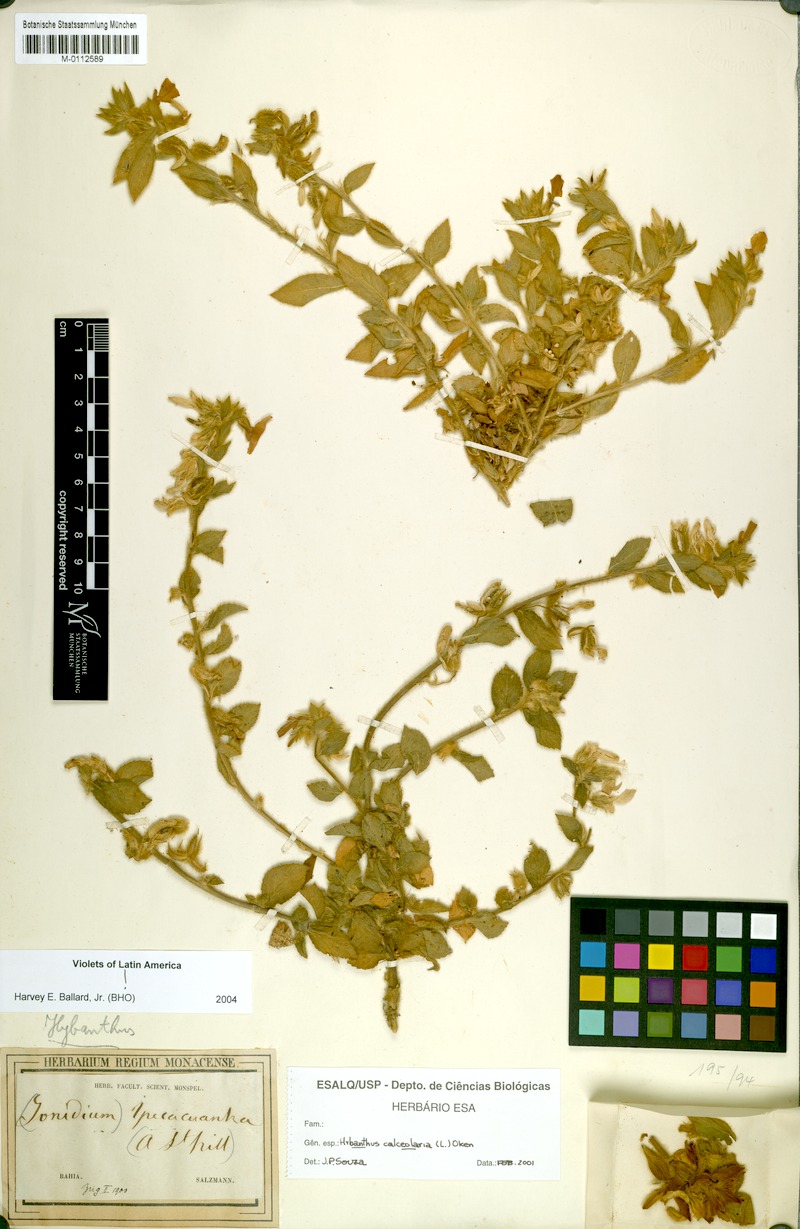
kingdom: Plantae
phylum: Tracheophyta
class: Magnoliopsida
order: Malpighiales
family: Violaceae
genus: Pombalia
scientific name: Pombalia calceolaria
